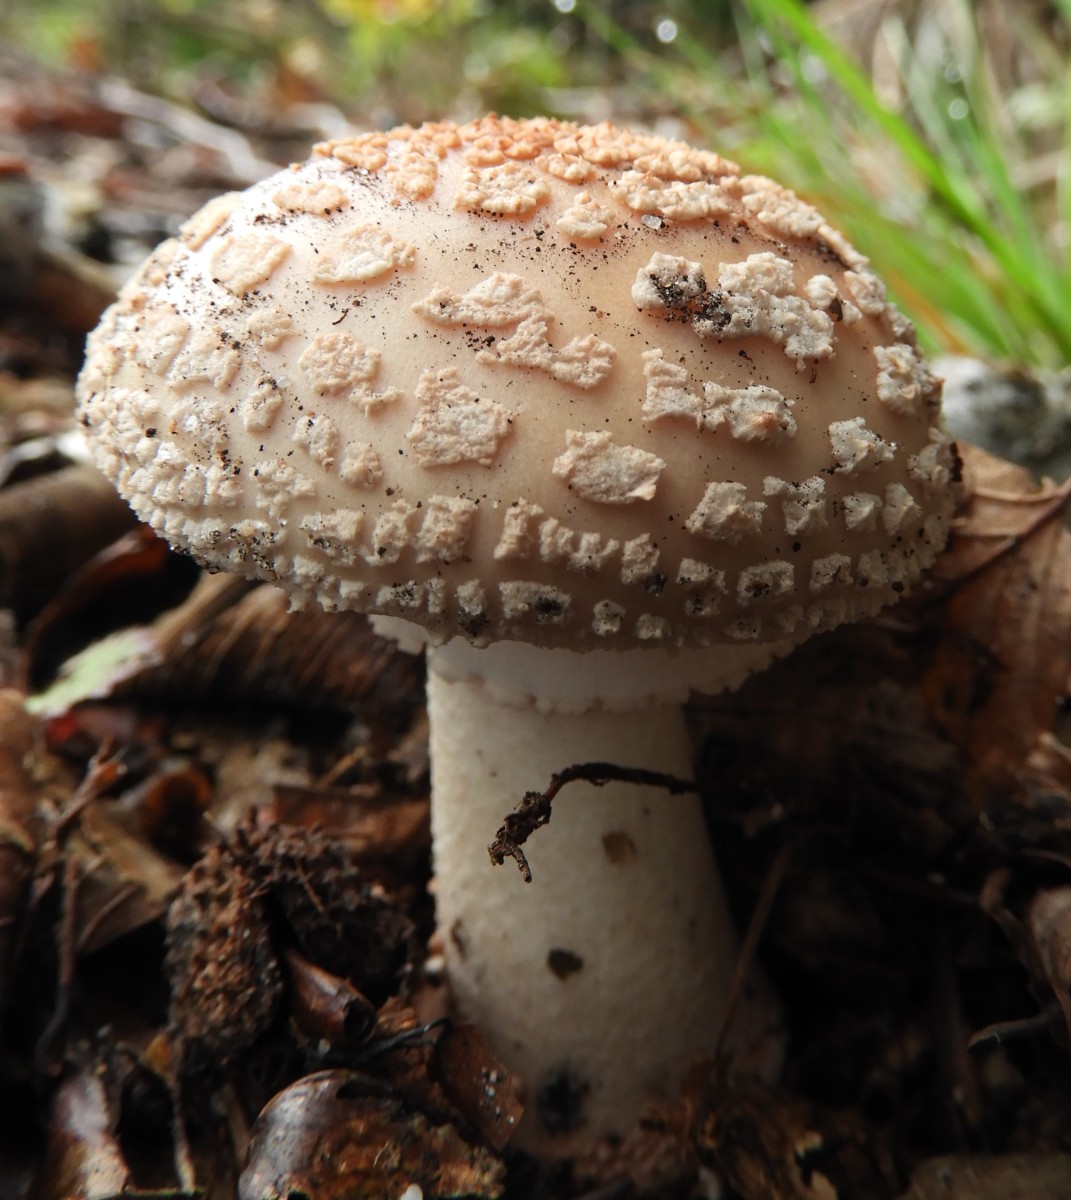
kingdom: Fungi
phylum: Basidiomycota
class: Agaricomycetes
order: Agaricales
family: Amanitaceae
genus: Amanita
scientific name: Amanita rubescens
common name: rødmende fluesvamp
